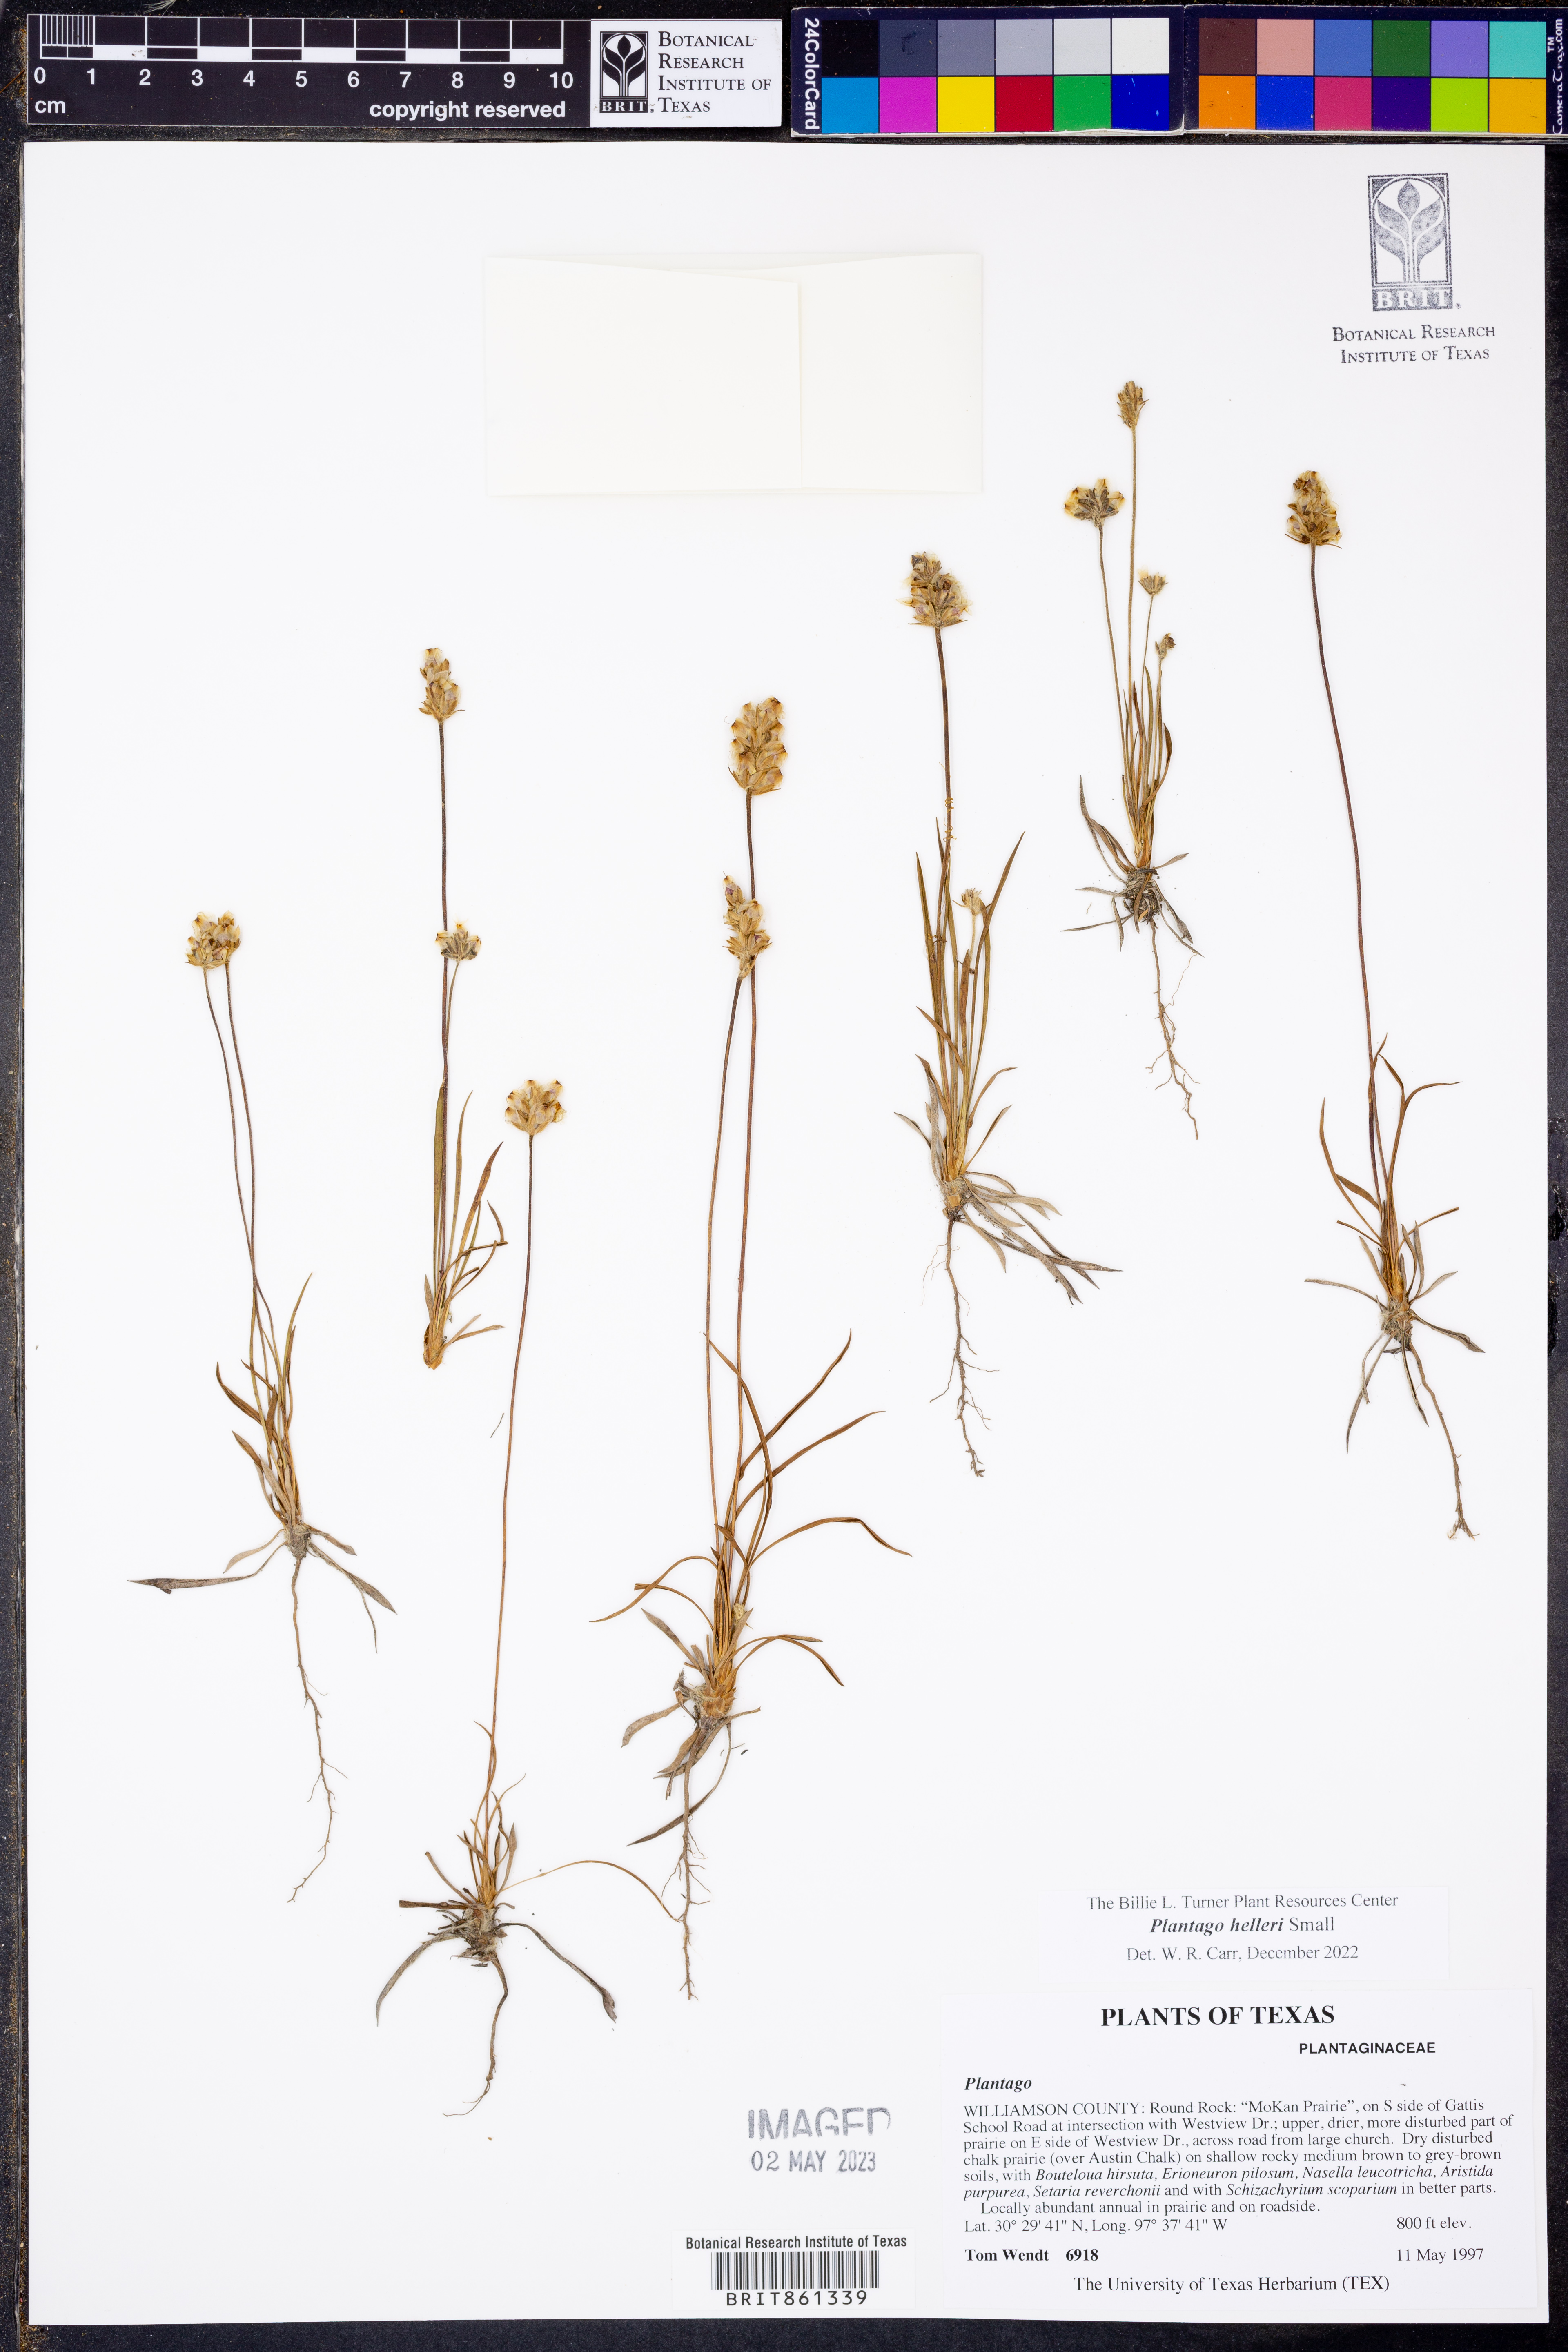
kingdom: Plantae
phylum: Tracheophyta
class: Magnoliopsida
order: Lamiales
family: Plantaginaceae
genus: Plantago
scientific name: Plantago helleri
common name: Heller's plantain
